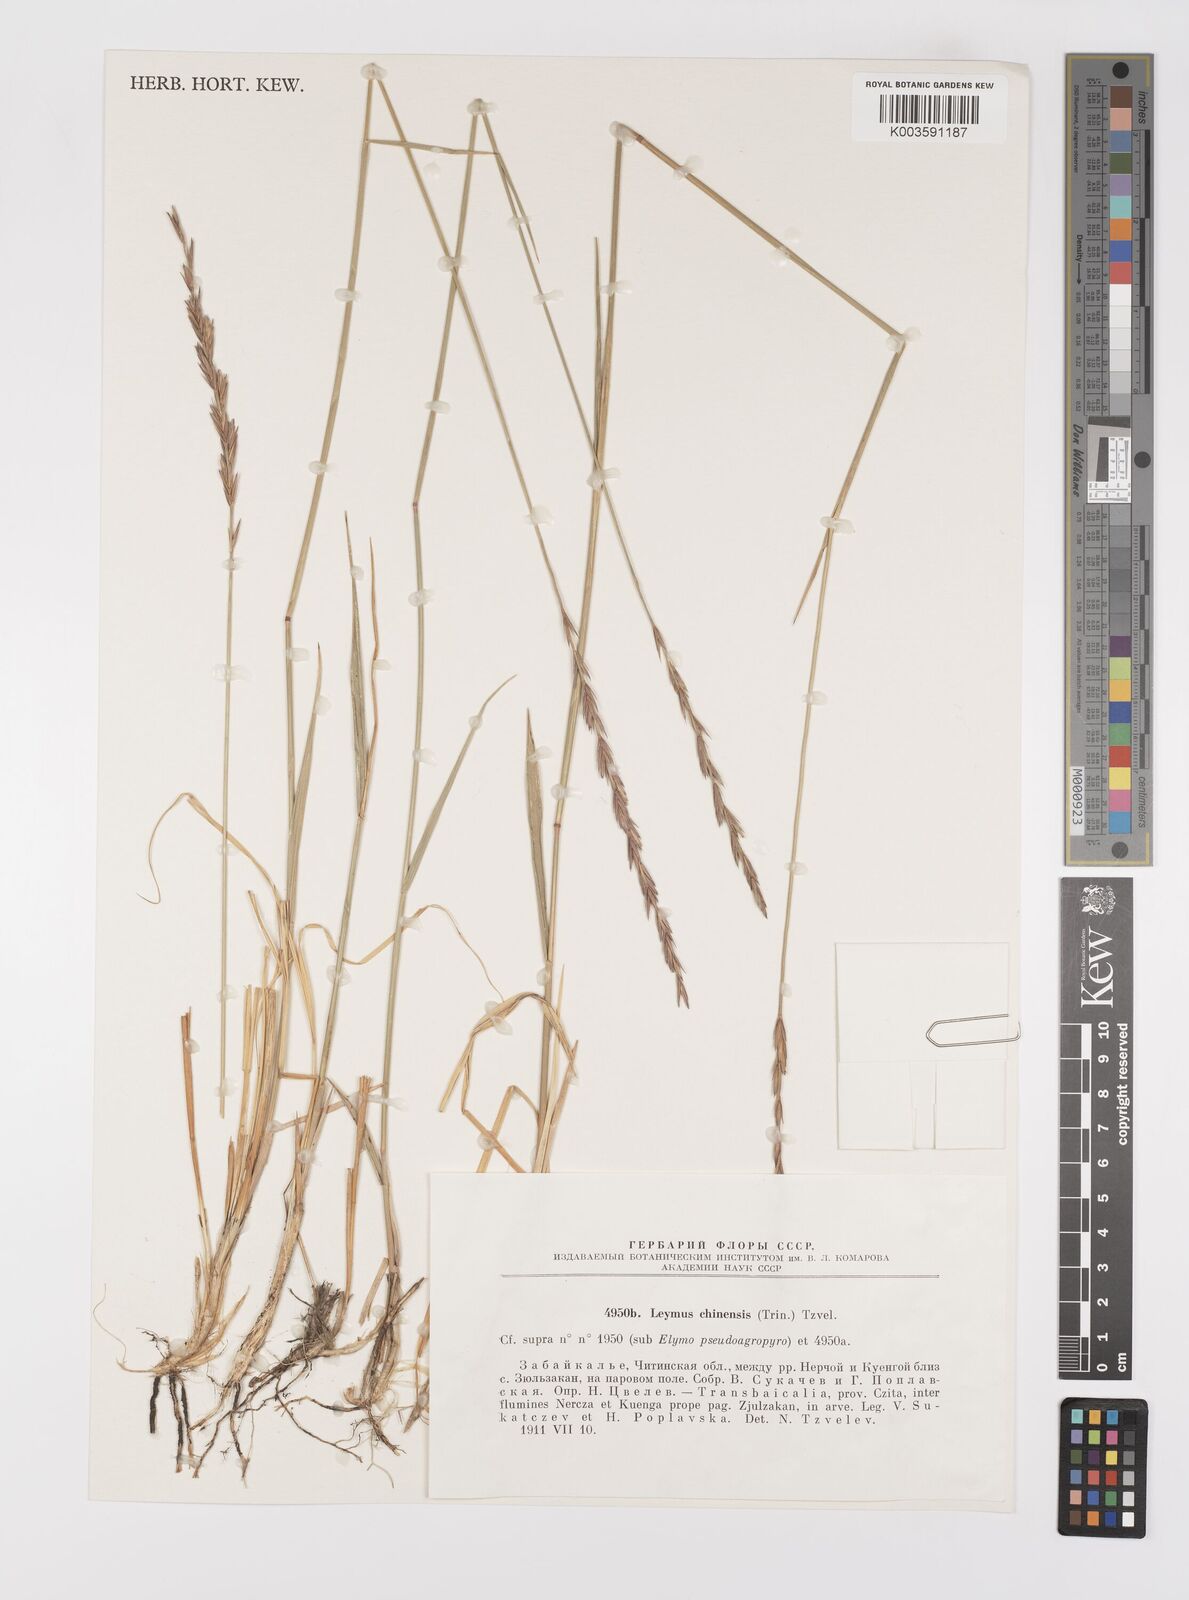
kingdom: Plantae
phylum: Tracheophyta
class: Liliopsida
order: Poales
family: Poaceae
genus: Leymus
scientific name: Leymus chinensis
